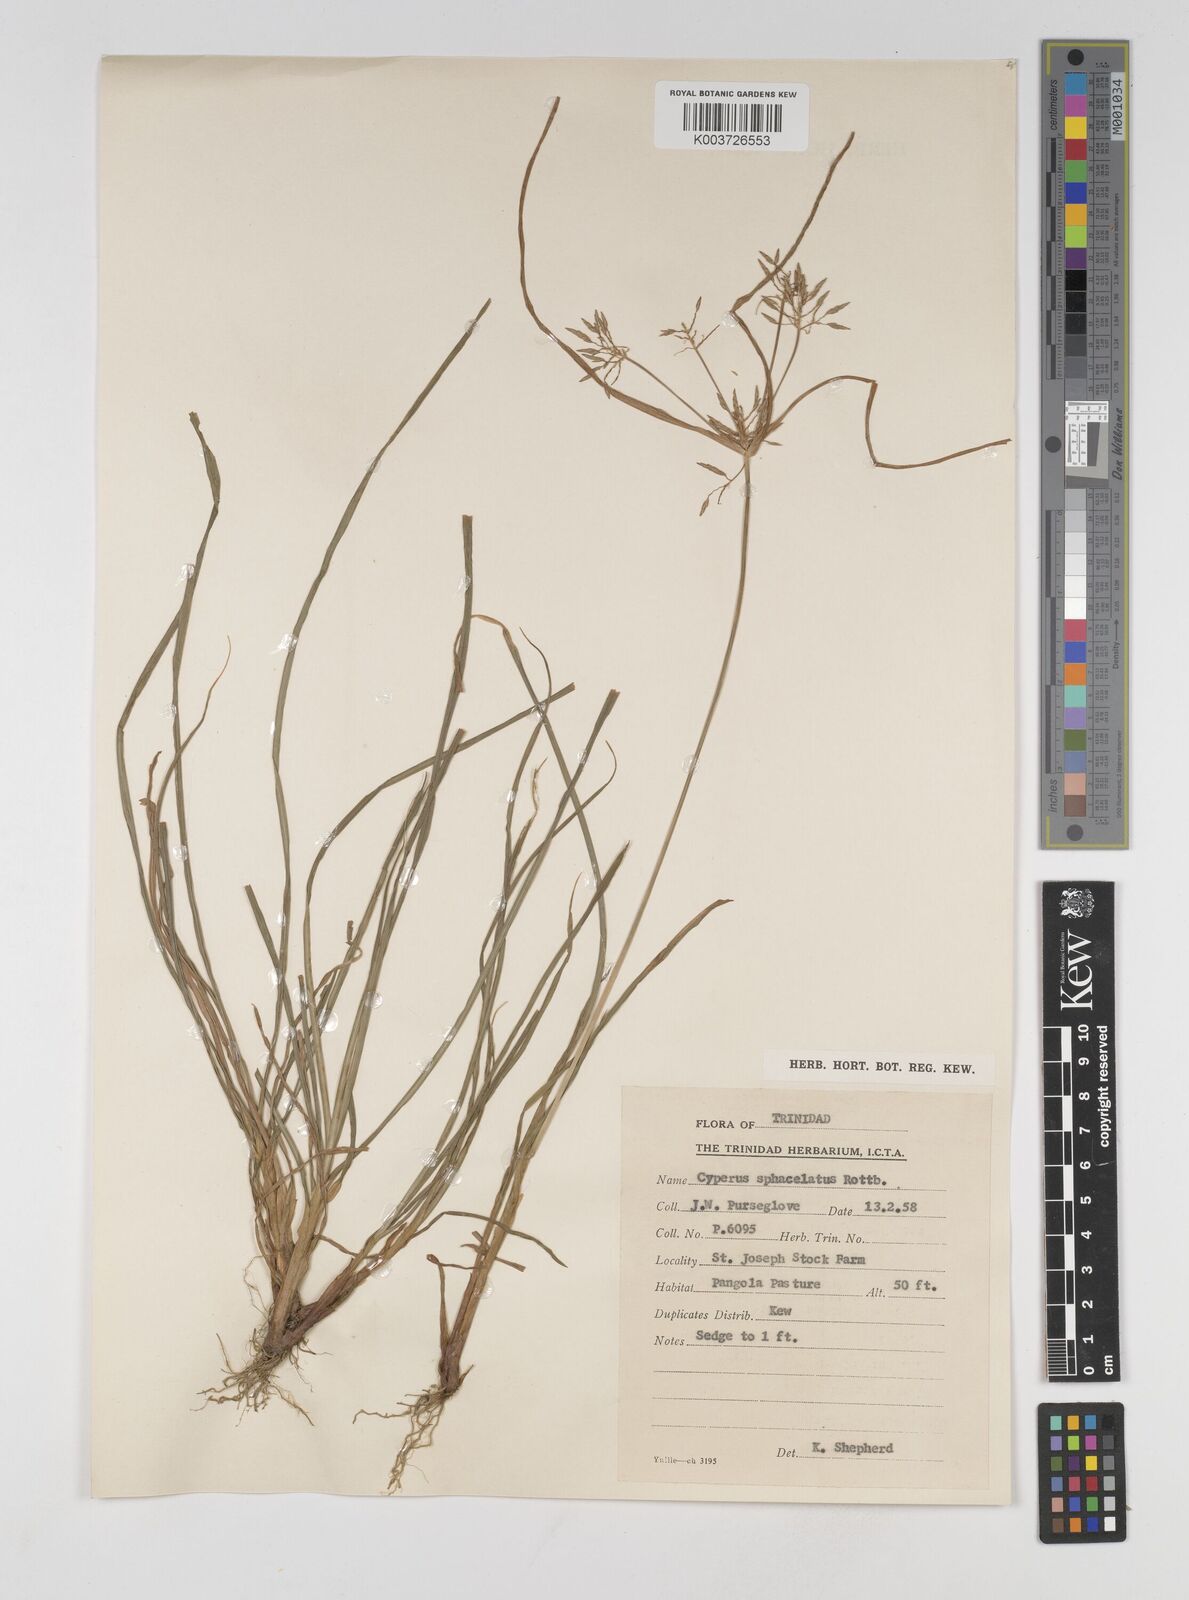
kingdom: Plantae
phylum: Tracheophyta
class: Liliopsida
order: Poales
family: Cyperaceae
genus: Cyperus
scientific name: Cyperus sphacelatus
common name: Roadside flatsedge
